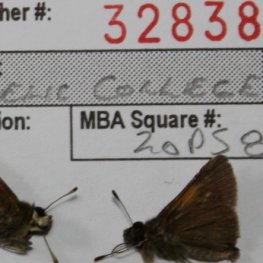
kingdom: Animalia
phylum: Arthropoda
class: Insecta
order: Lepidoptera
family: Hesperiidae
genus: Polites
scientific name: Polites themistocles
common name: Tawny-edged Skipper
